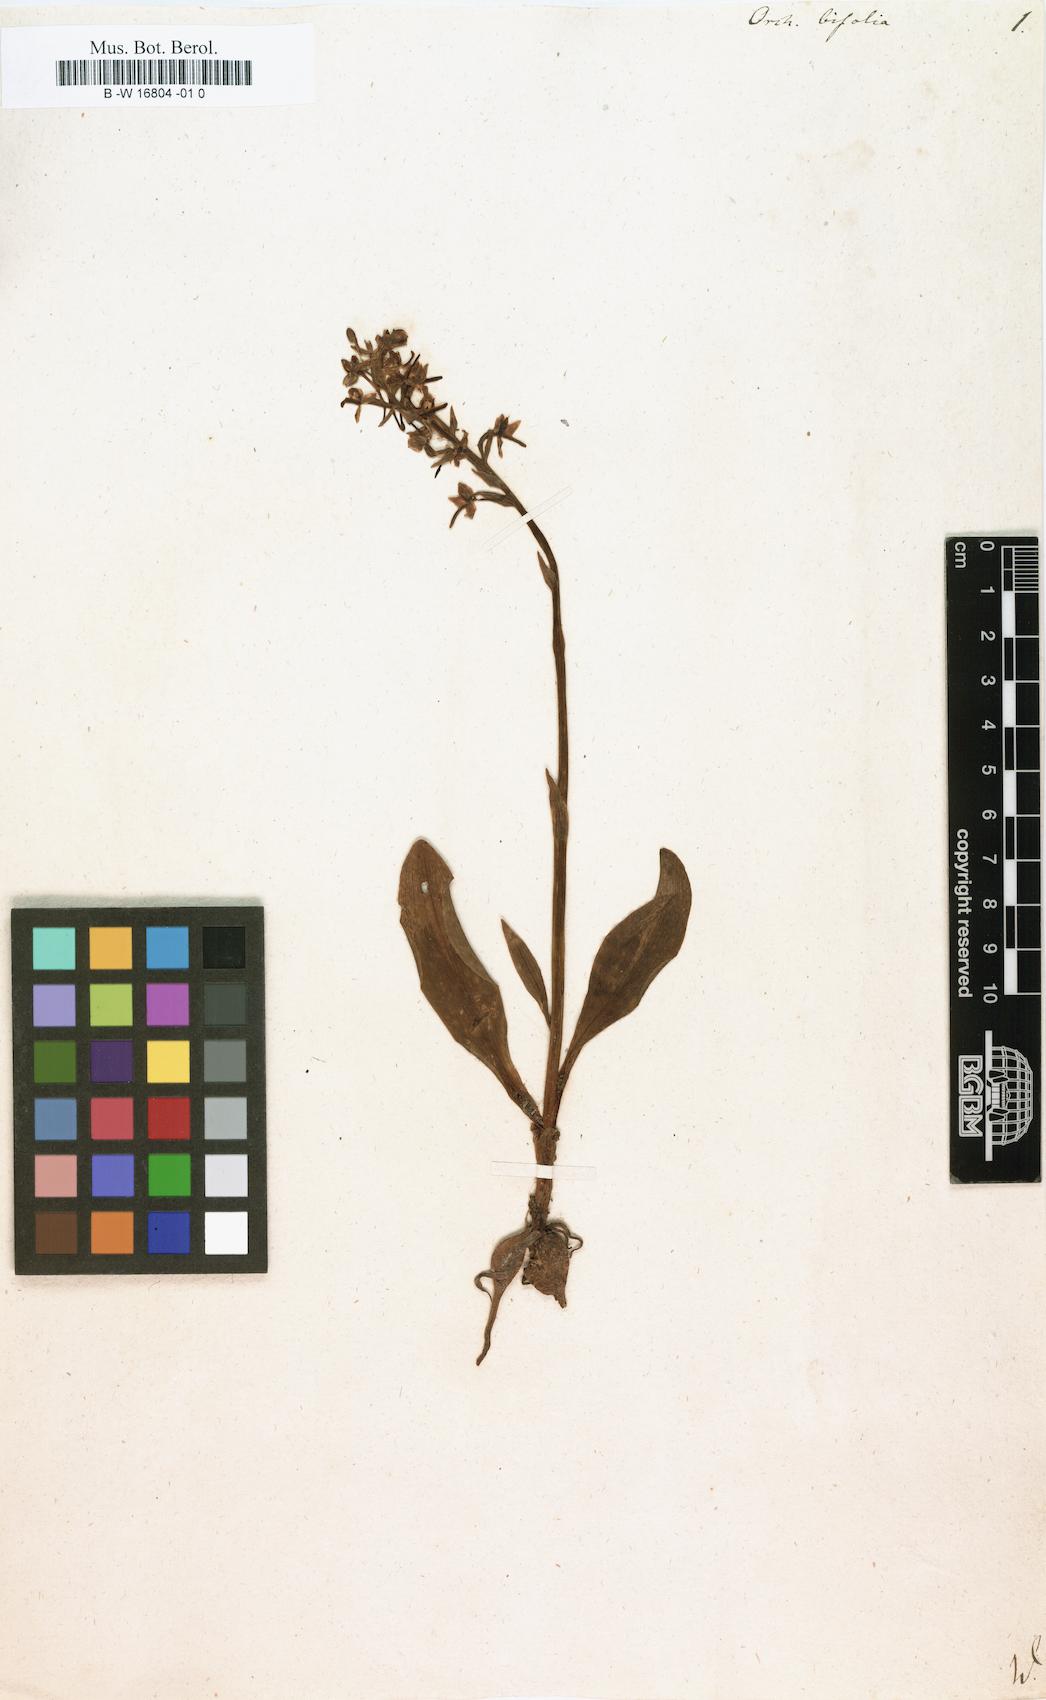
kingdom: Plantae
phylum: Tracheophyta
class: Liliopsida
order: Asparagales
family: Orchidaceae
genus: Platanthera
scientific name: Platanthera bifolia
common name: Lesser butterfly-orchid
